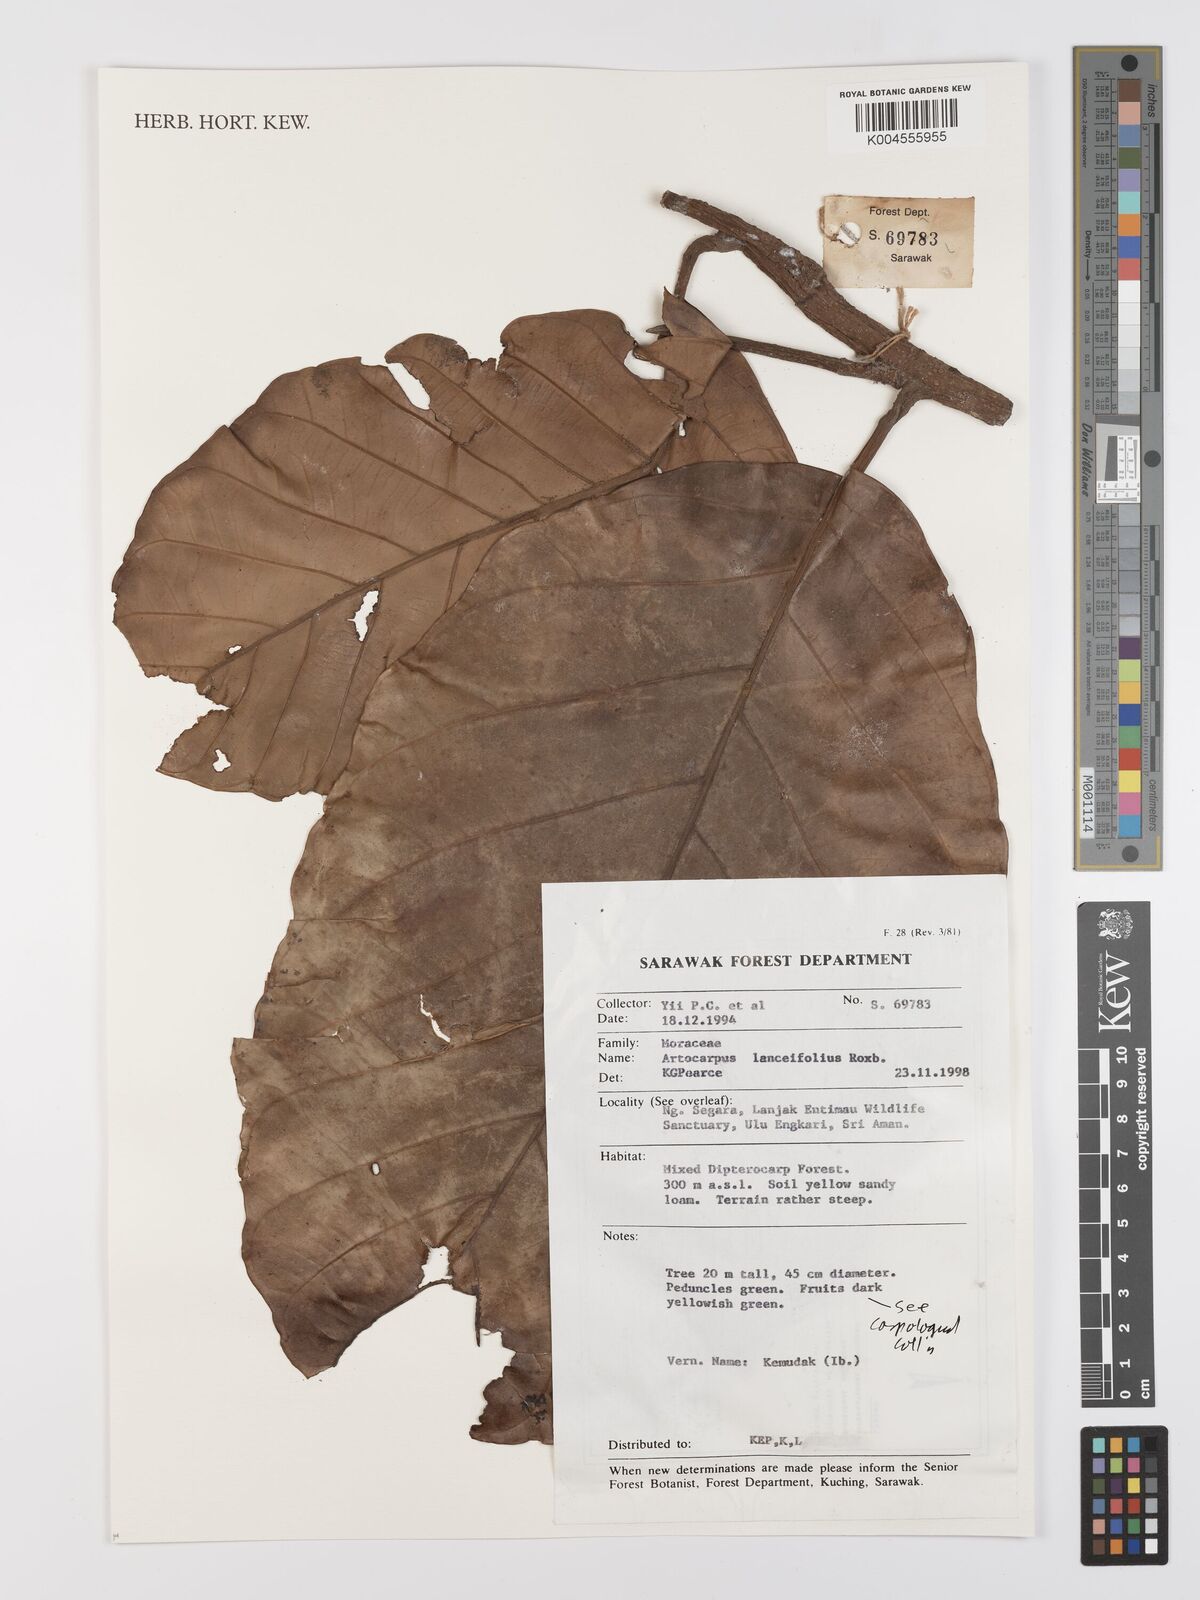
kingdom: Plantae
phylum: Tracheophyta
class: Magnoliopsida
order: Rosales
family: Moraceae
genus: Artocarpus
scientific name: Artocarpus lanceifolius
